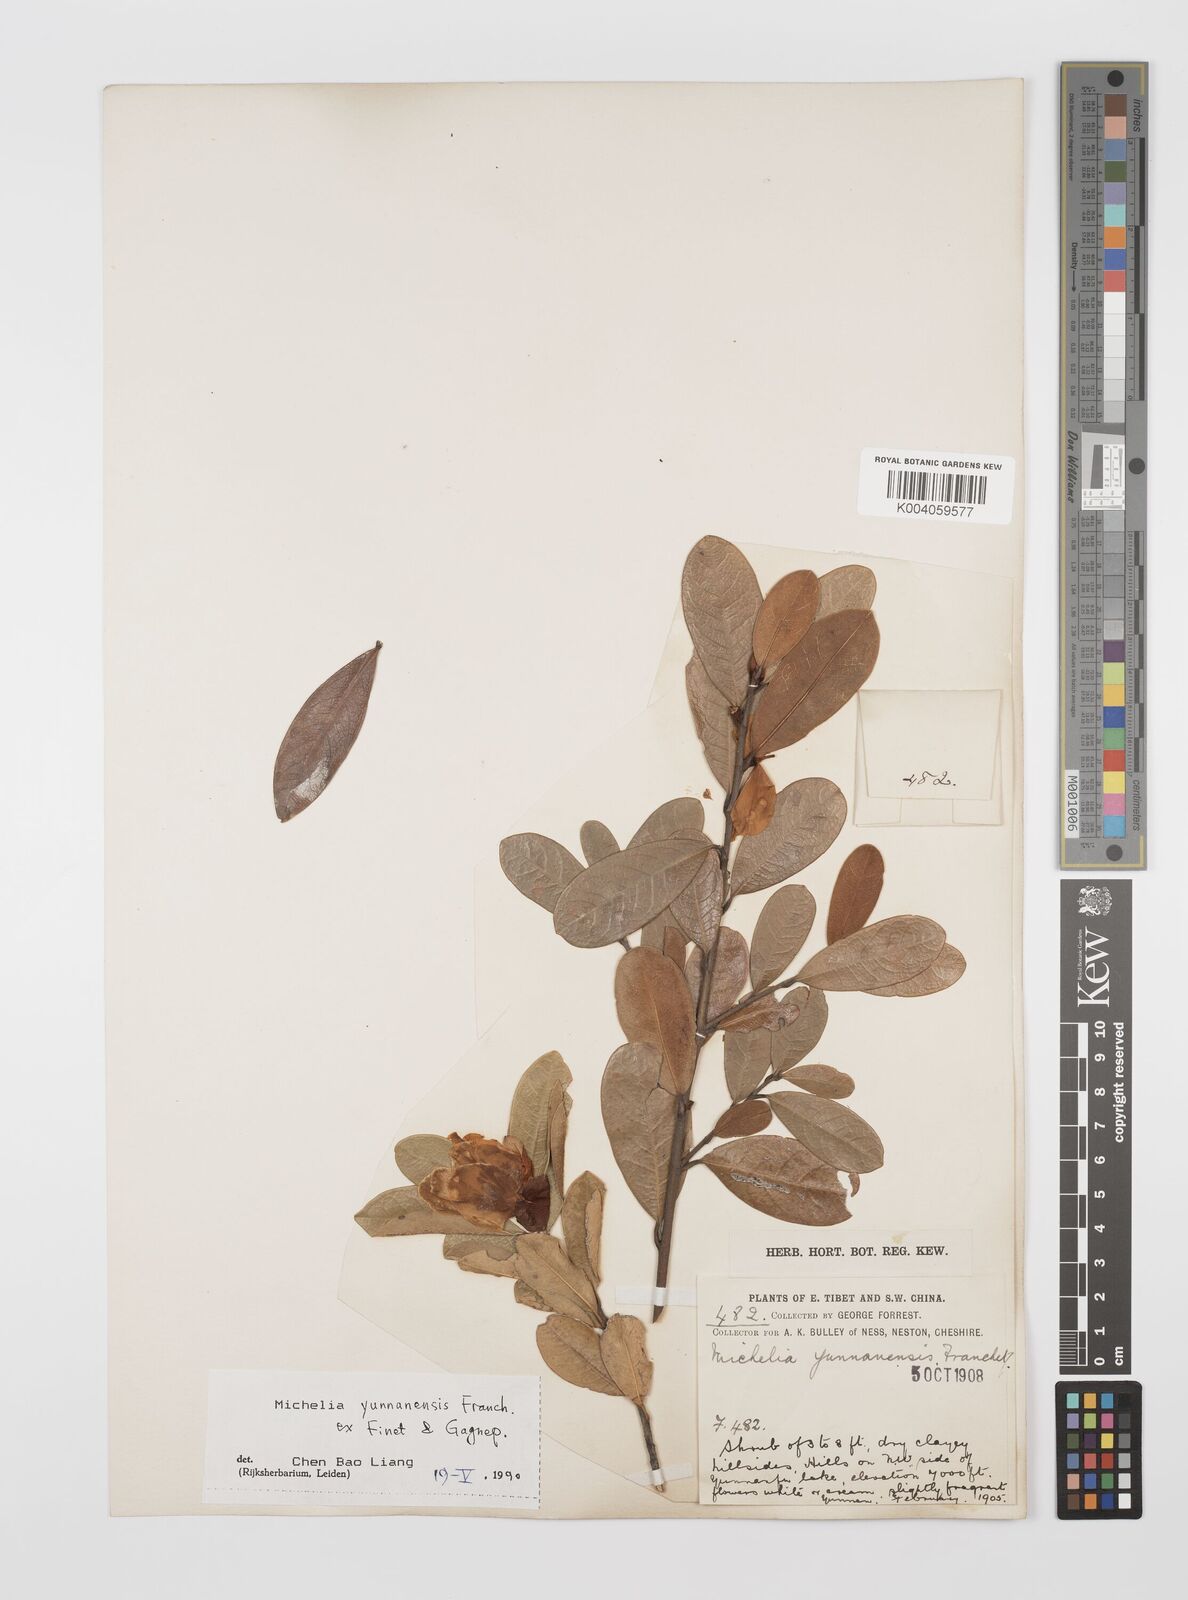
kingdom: Plantae
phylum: Tracheophyta
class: Magnoliopsida
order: Magnoliales
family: Magnoliaceae
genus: Magnolia
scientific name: Magnolia laevifolia
